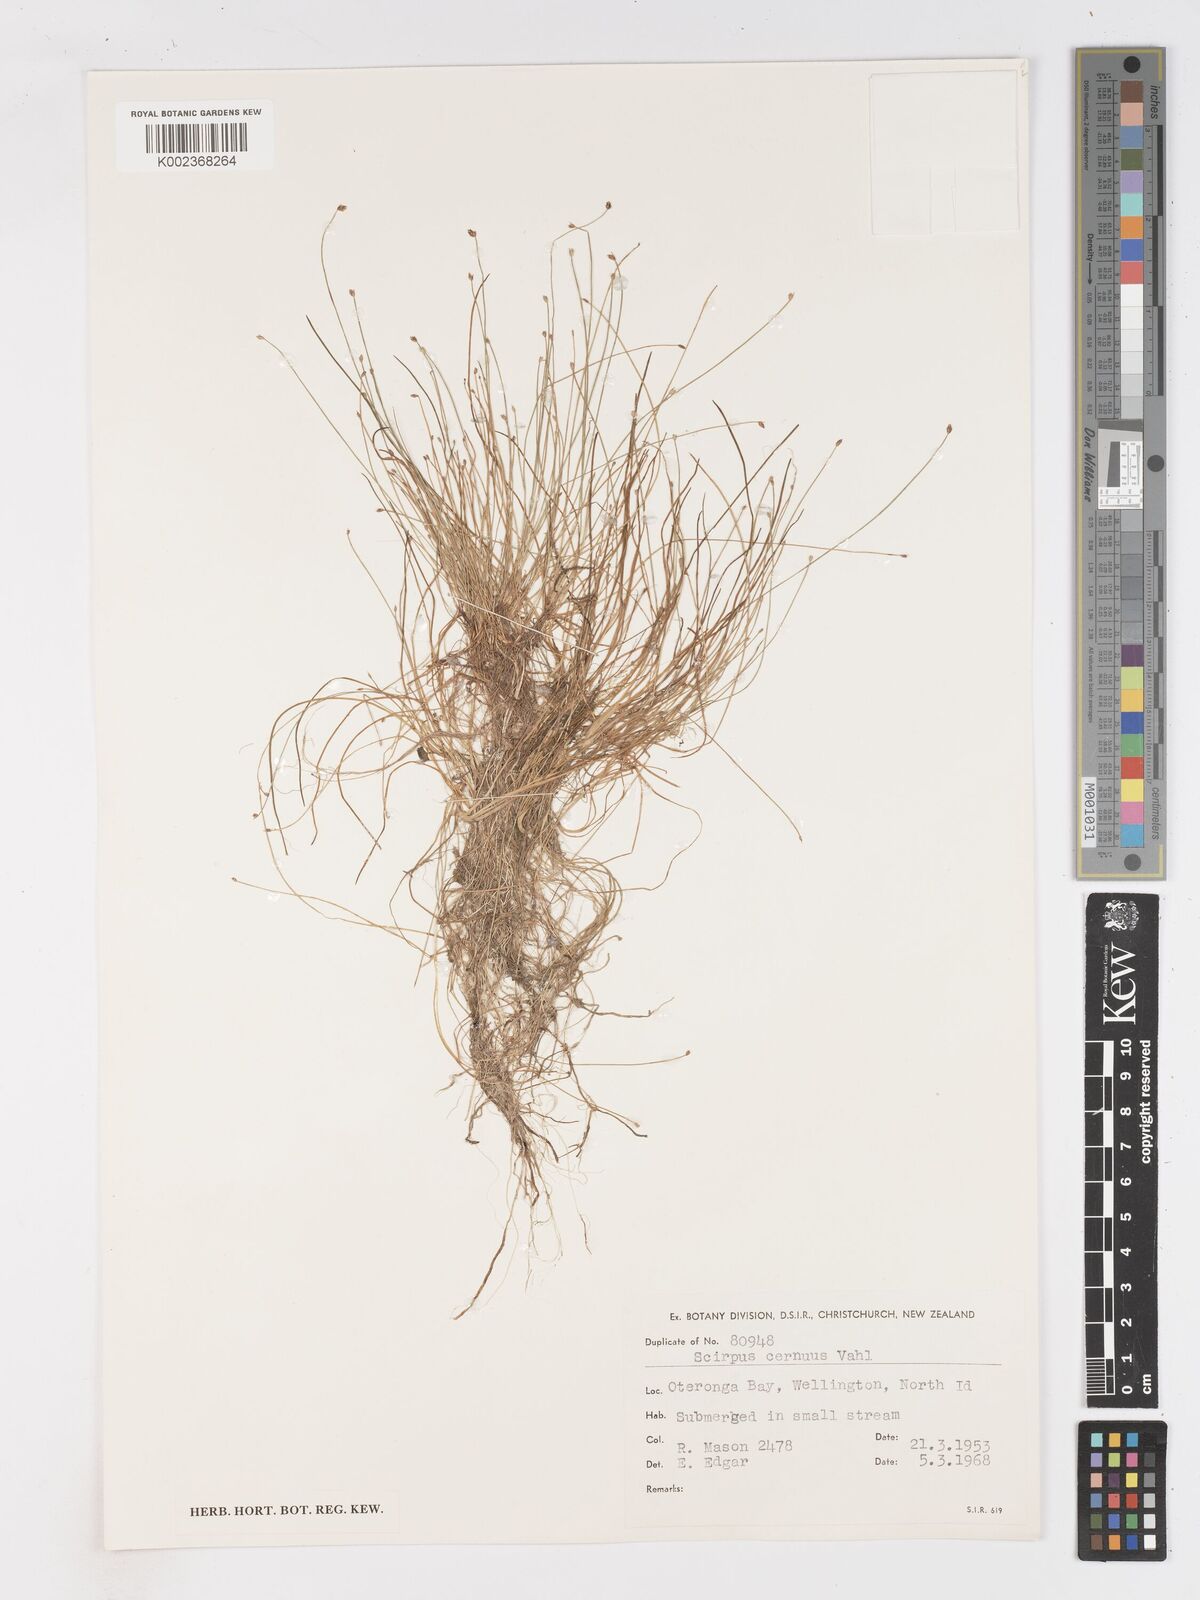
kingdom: Plantae
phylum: Tracheophyta
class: Liliopsida
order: Poales
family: Cyperaceae
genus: Isolepis
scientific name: Isolepis cernua
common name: Slender club-rush
